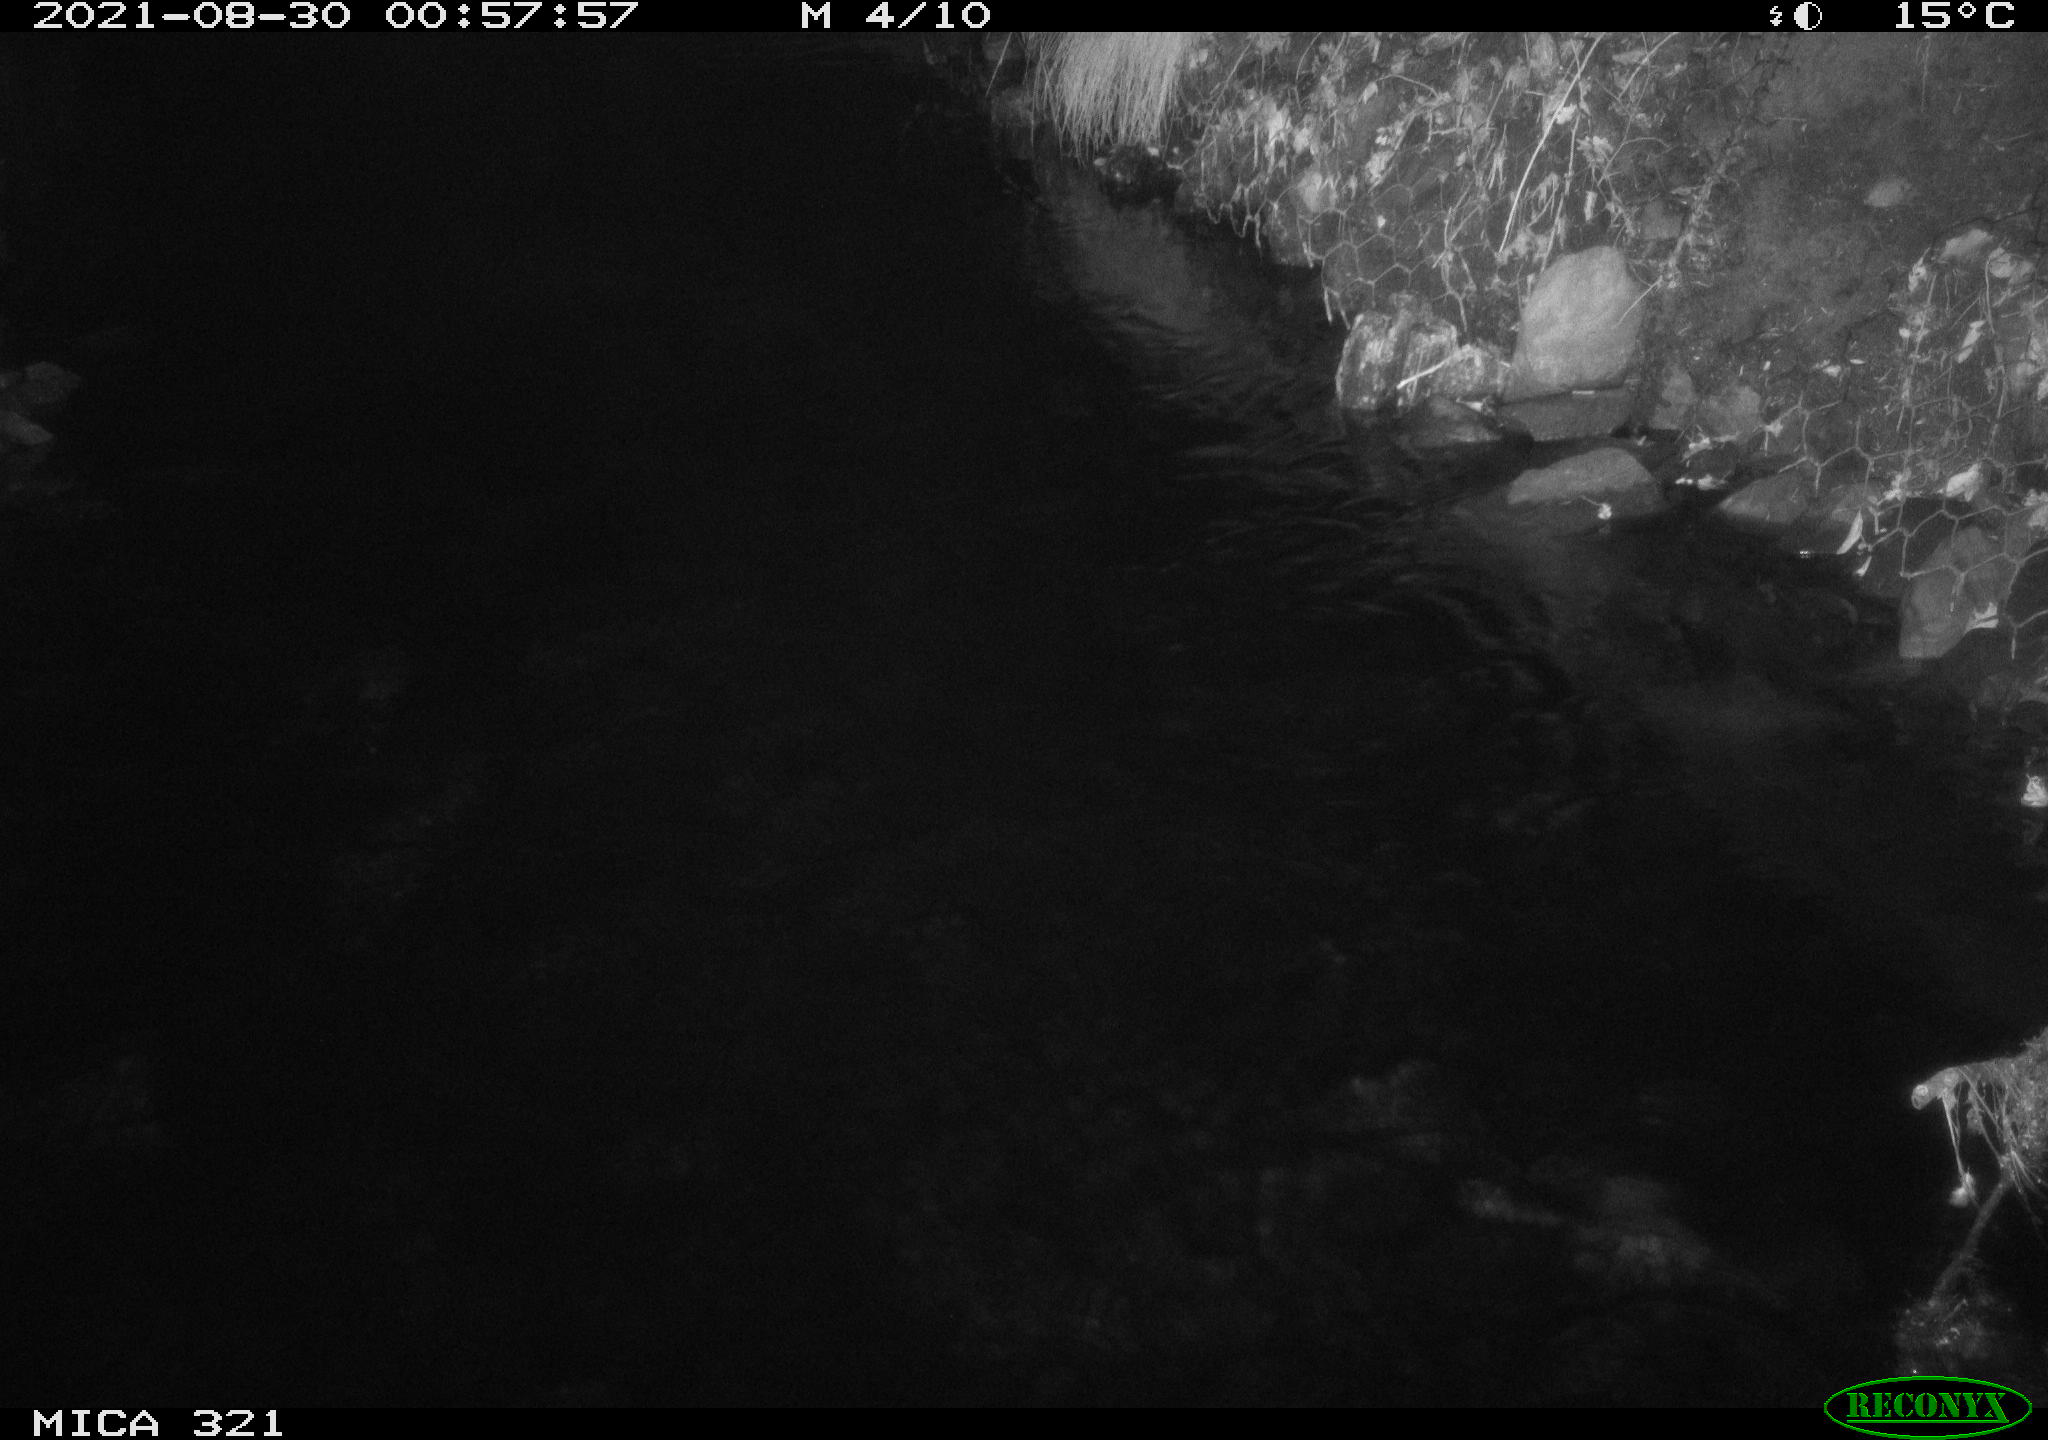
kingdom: Animalia
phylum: Chordata
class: Aves
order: Anseriformes
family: Anatidae
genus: Anas
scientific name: Anas platyrhynchos
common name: Mallard
